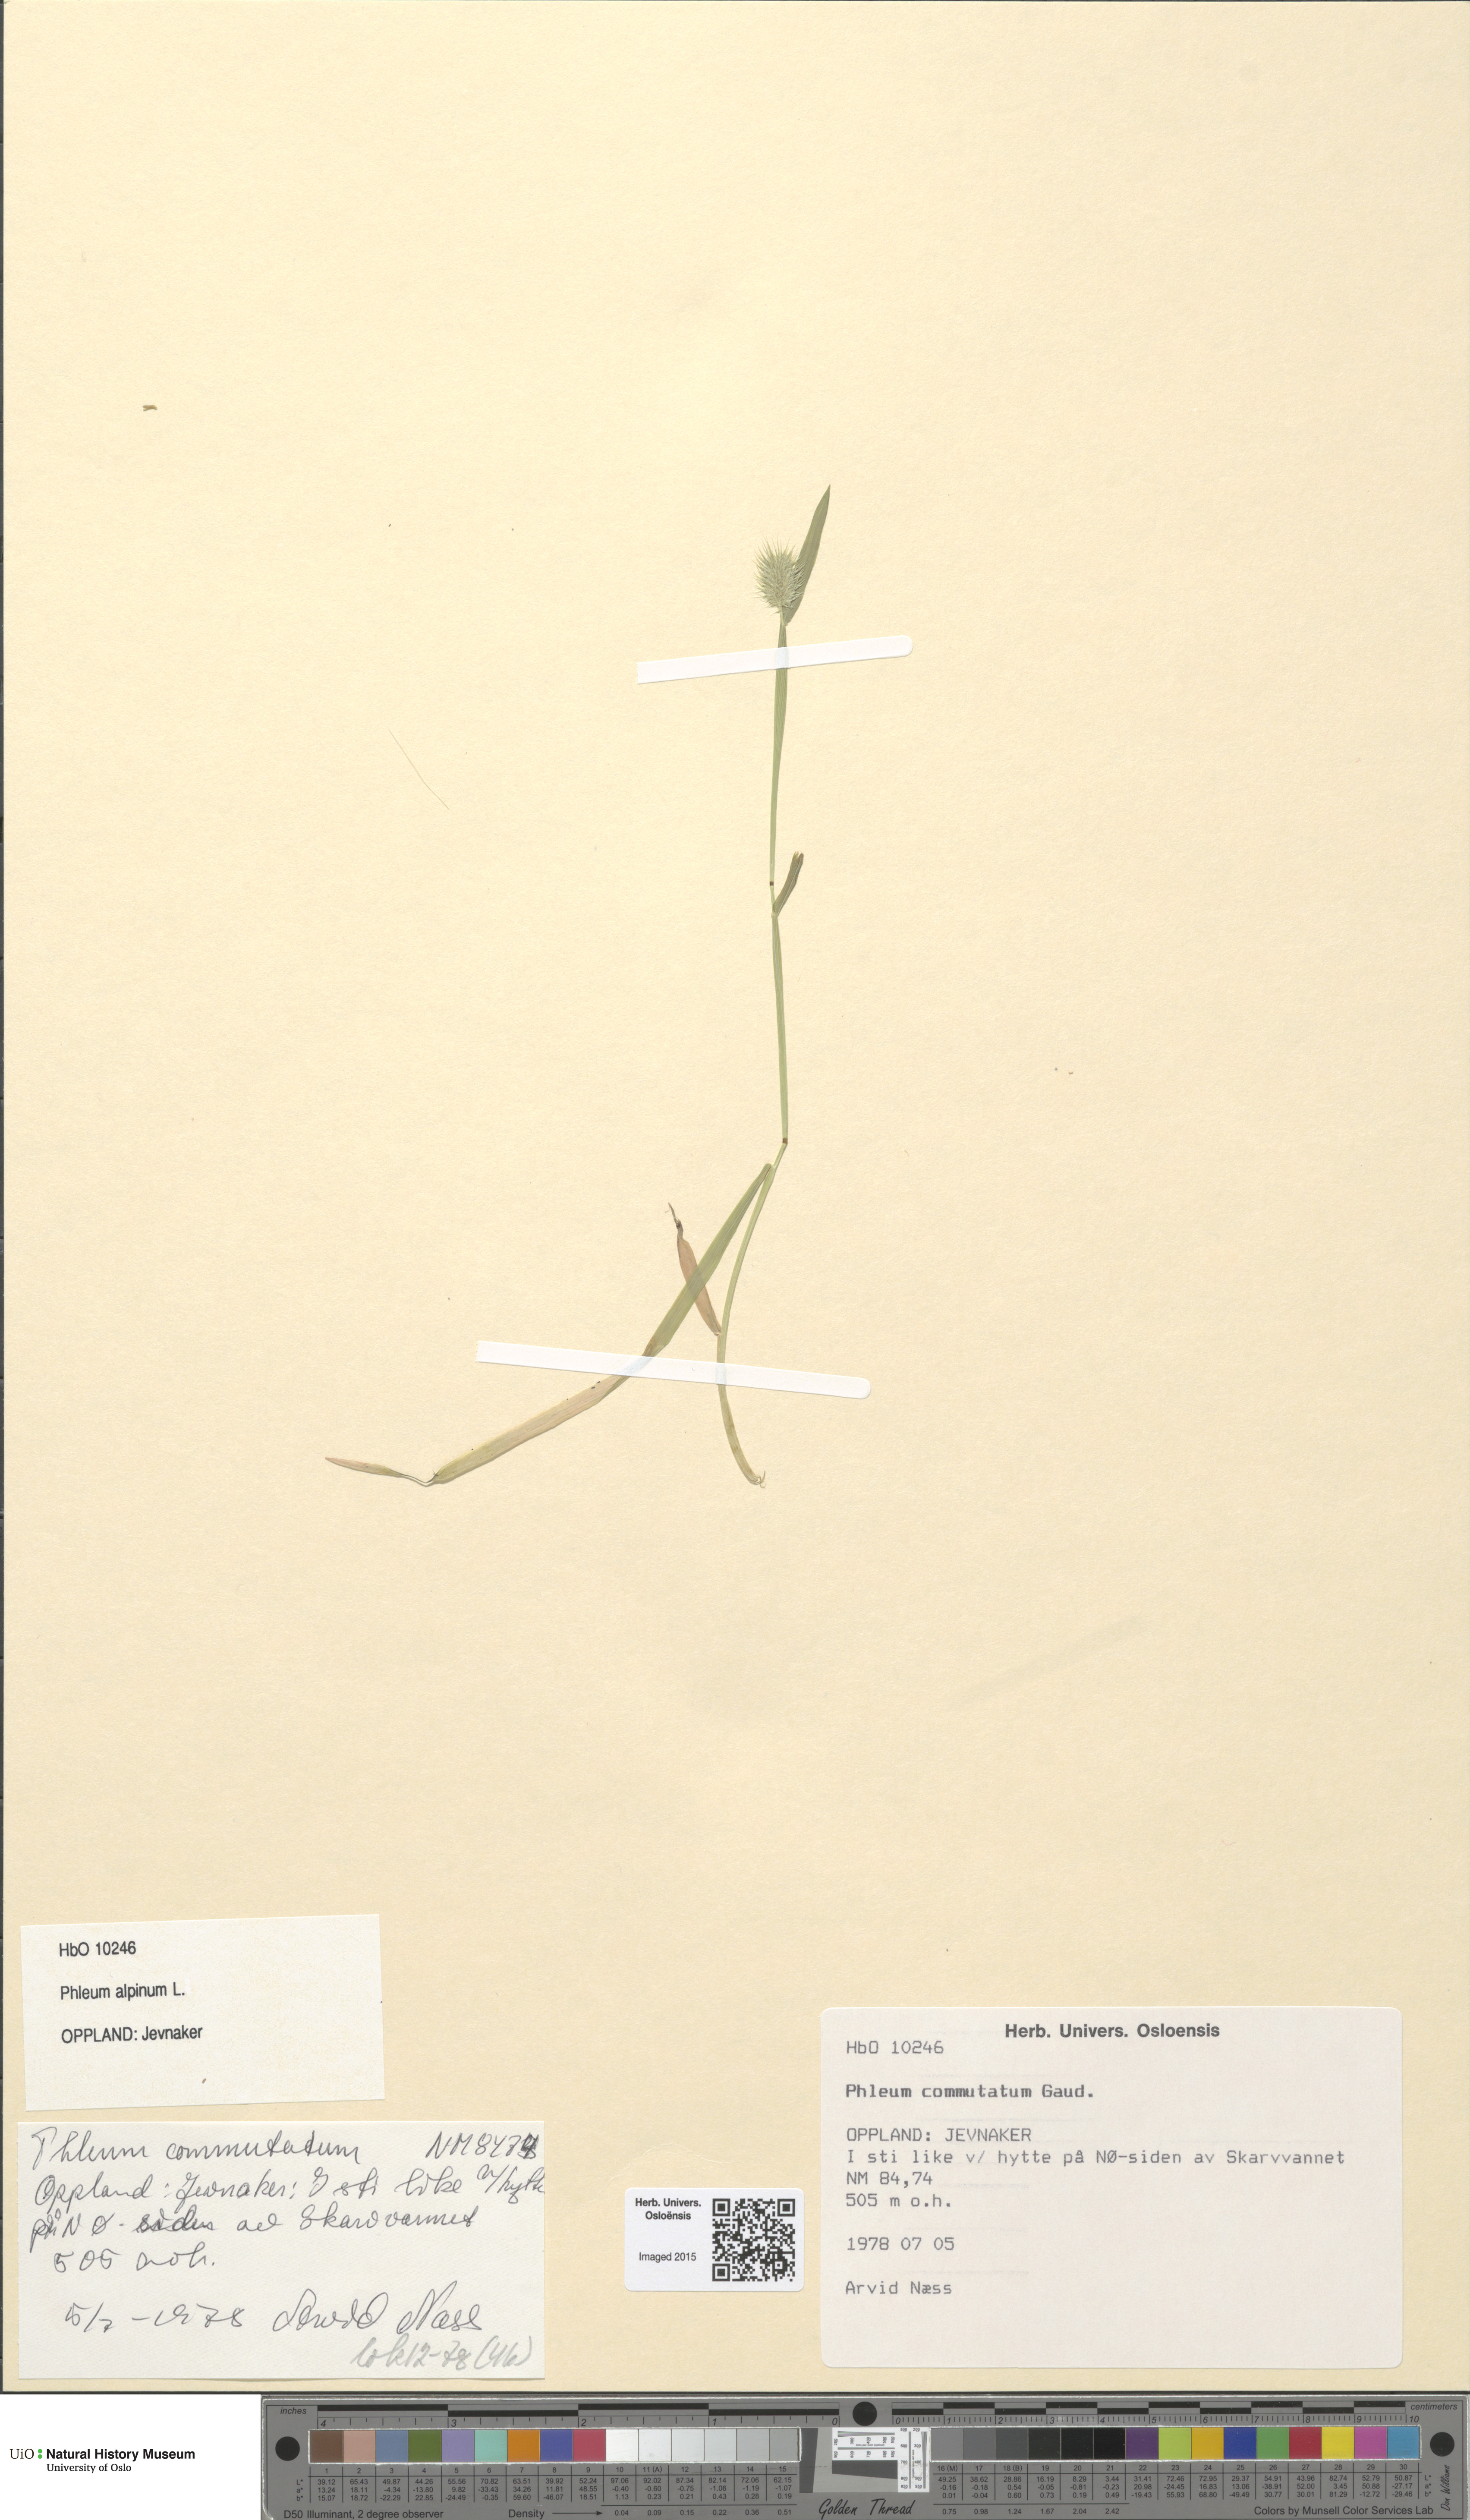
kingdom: Plantae
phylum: Tracheophyta
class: Liliopsida
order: Poales
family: Poaceae
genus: Phleum
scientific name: Phleum alpinum
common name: Alpine cat's-tail
